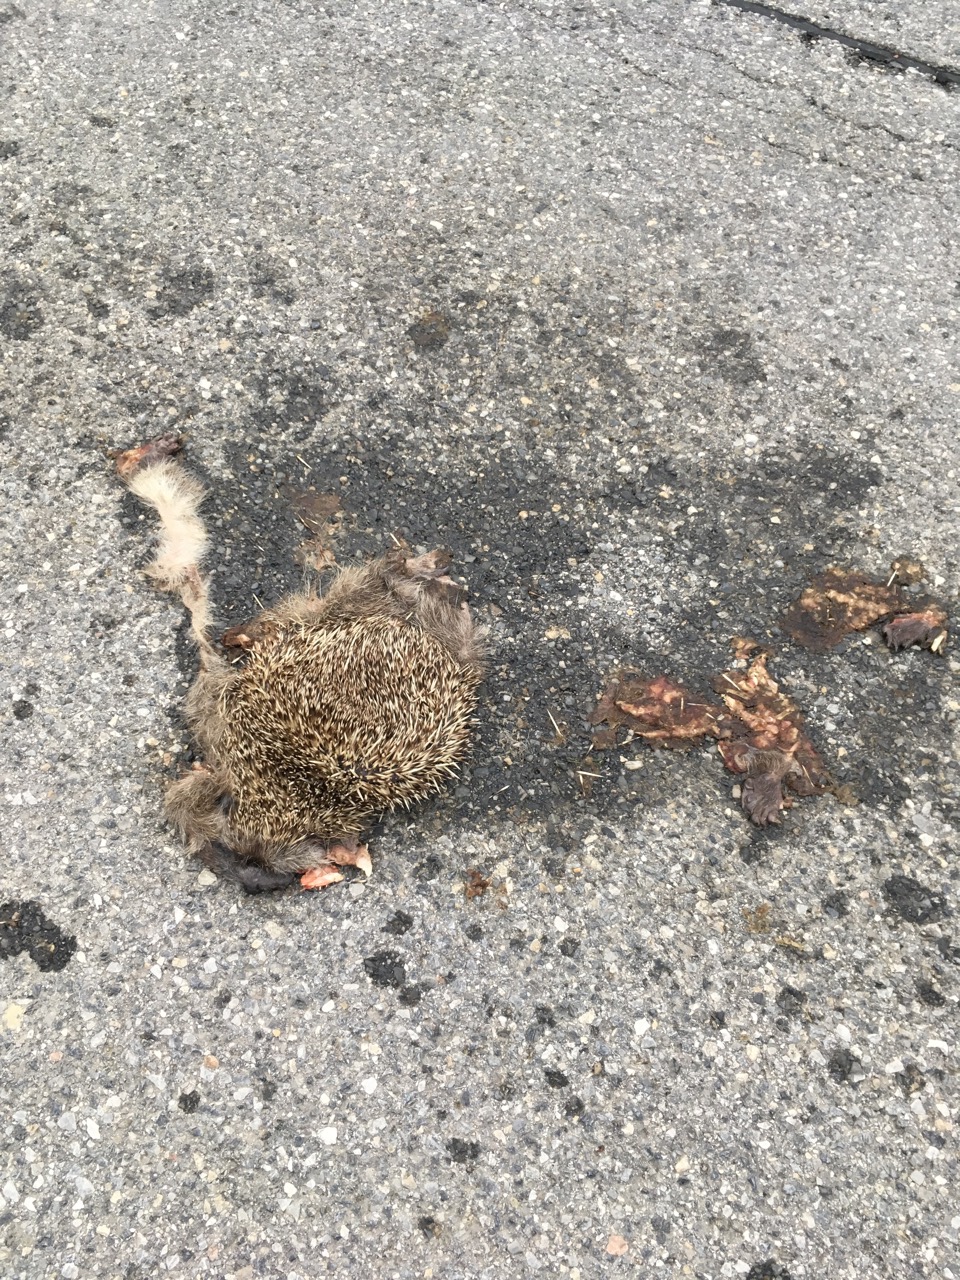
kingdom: Animalia
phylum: Chordata
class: Mammalia
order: Erinaceomorpha
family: Erinaceidae
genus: Erinaceus
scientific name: Erinaceus
